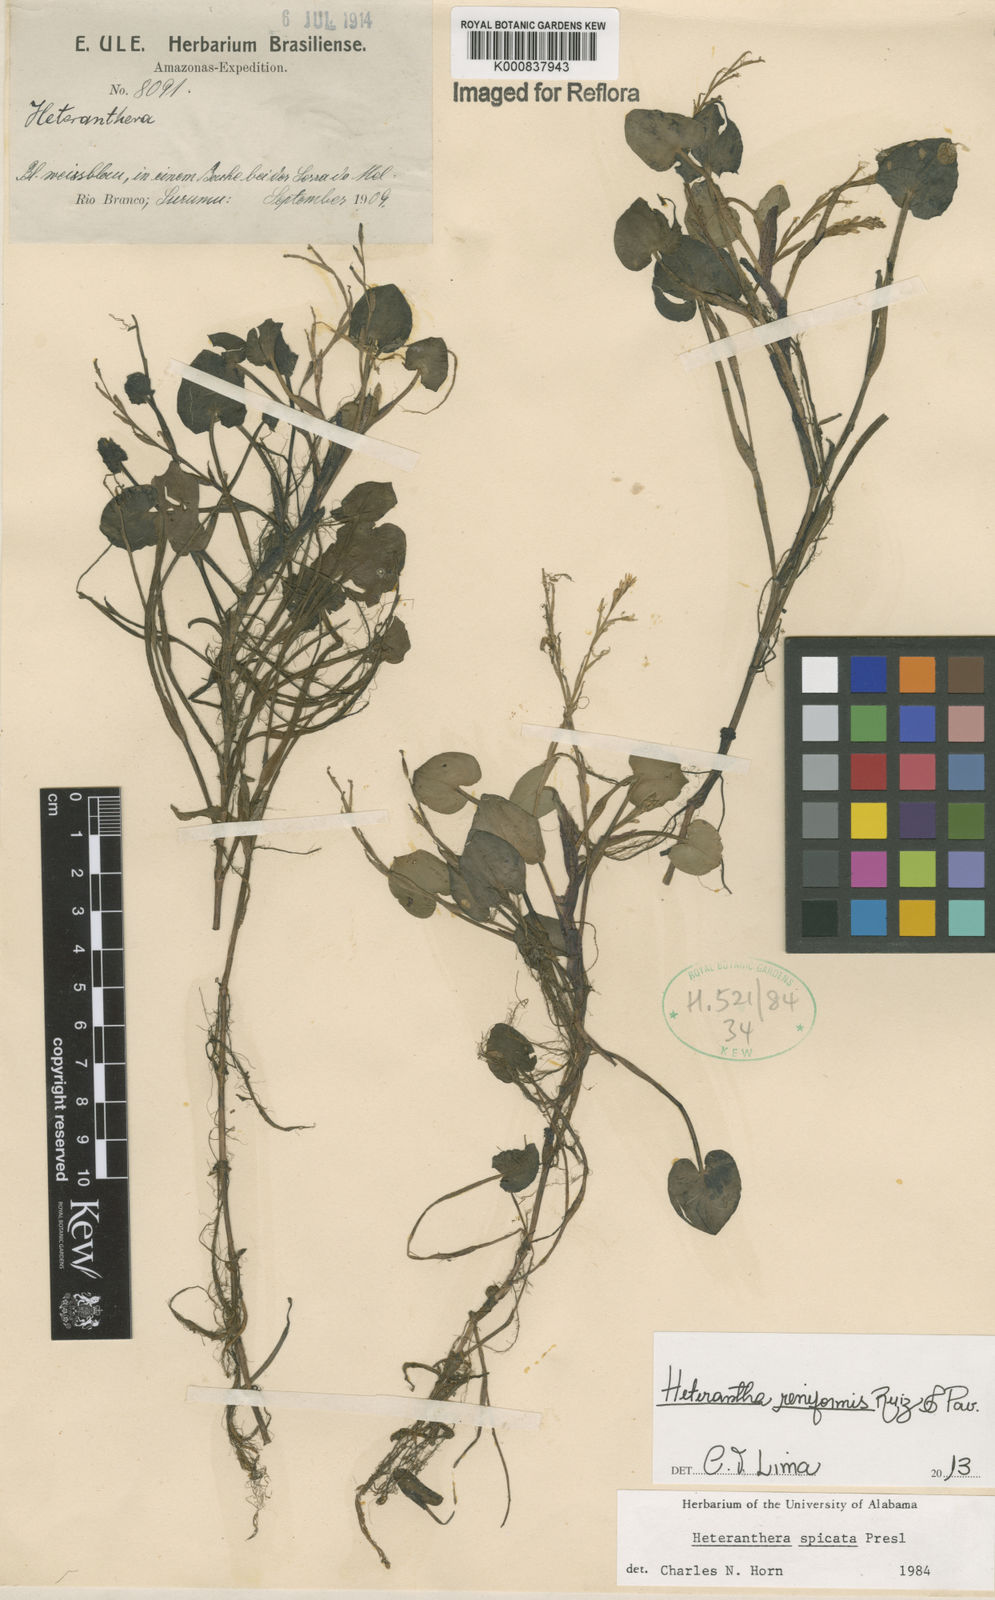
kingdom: Plantae
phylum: Tracheophyta
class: Liliopsida
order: Commelinales
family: Pontederiaceae
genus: Heteranthera
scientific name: Heteranthera reniformis
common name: Kidneyleaf mudplantain
